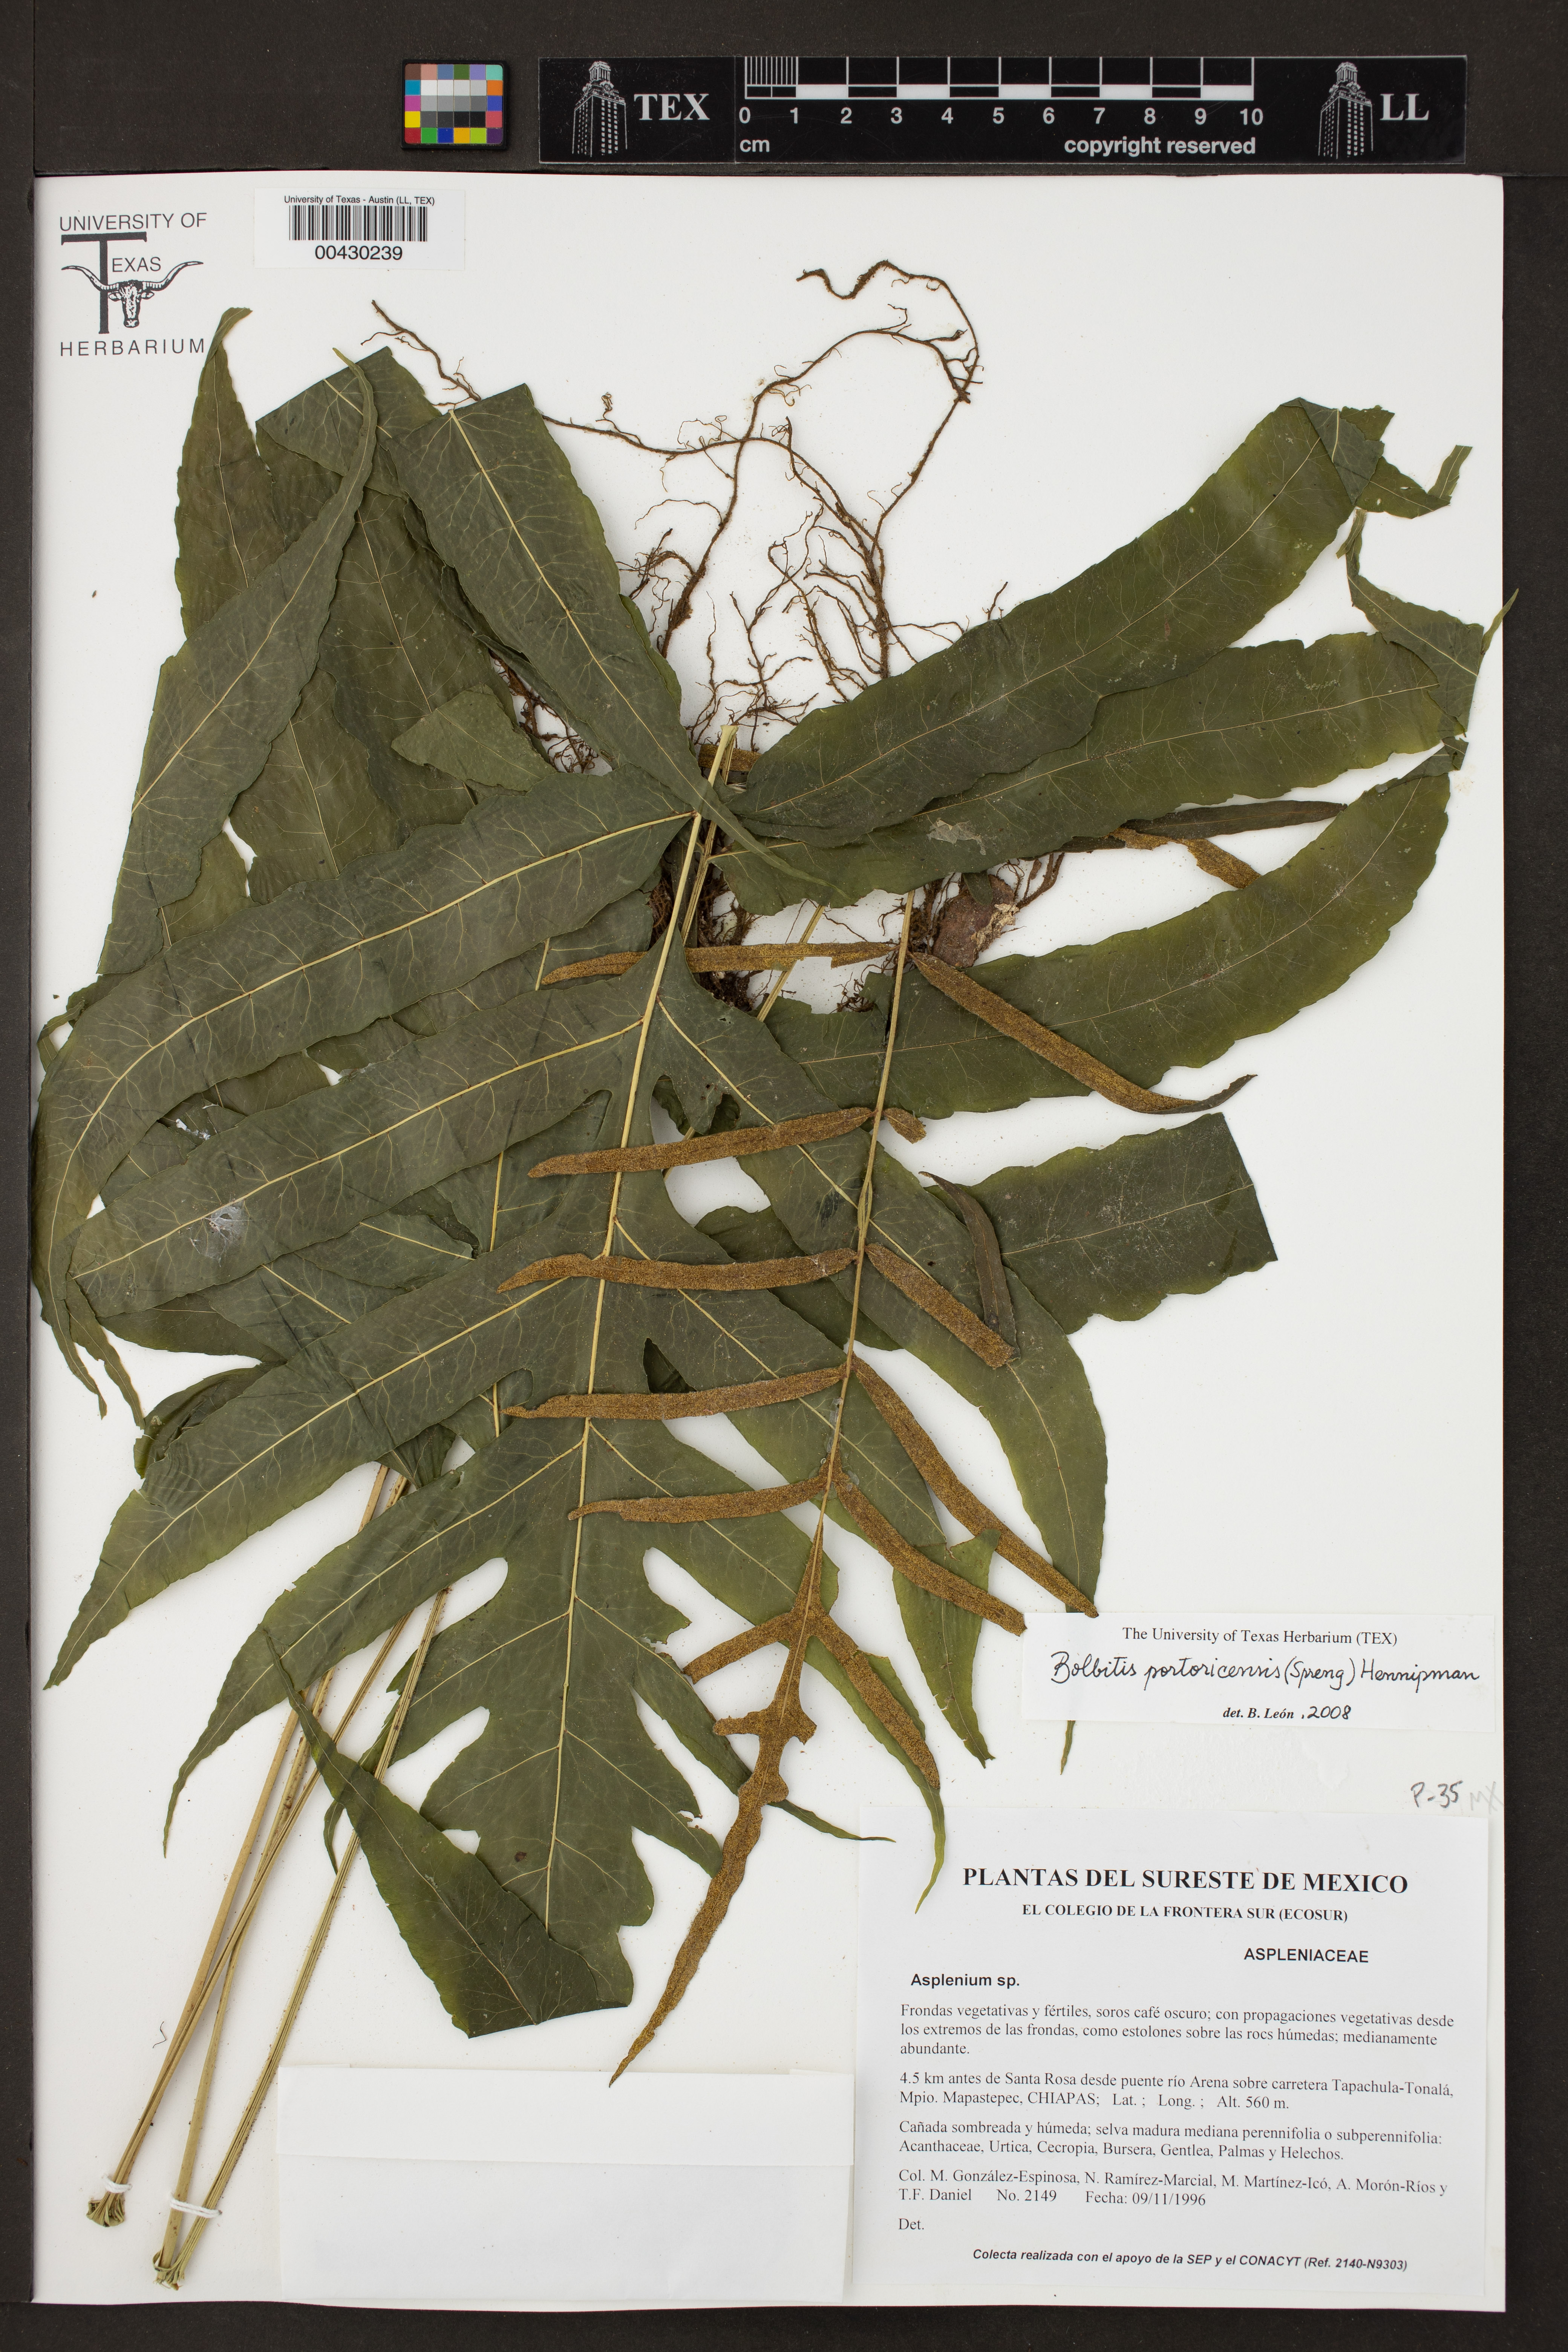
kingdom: Plantae
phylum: Tracheophyta
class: Polypodiopsida
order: Polypodiales
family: Dryopteridaceae
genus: Bolbitis
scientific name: Bolbitis portoricensis
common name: Puerto rico creepingfer
